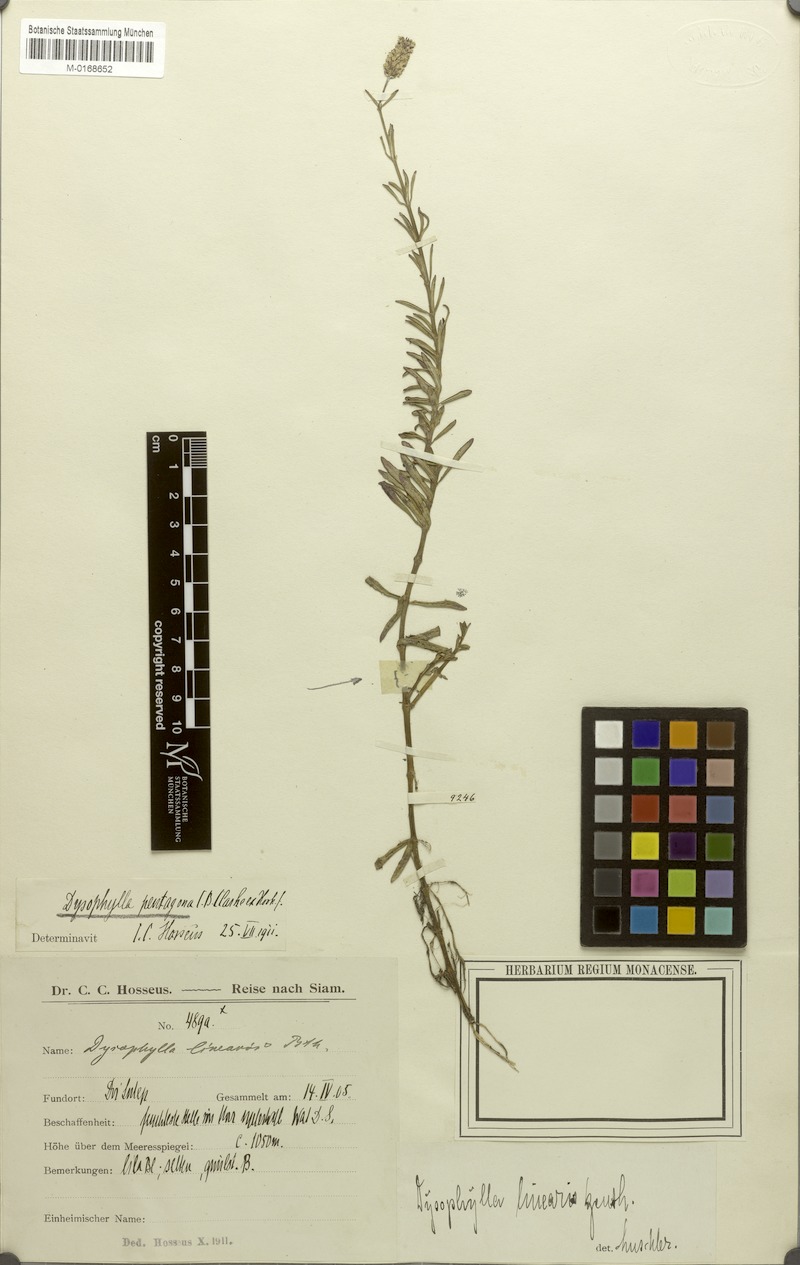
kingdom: Plantae
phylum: Tracheophyta
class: Magnoliopsida
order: Lamiales
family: Lamiaceae
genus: Pogostemon
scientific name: Pogostemon pentagonus
